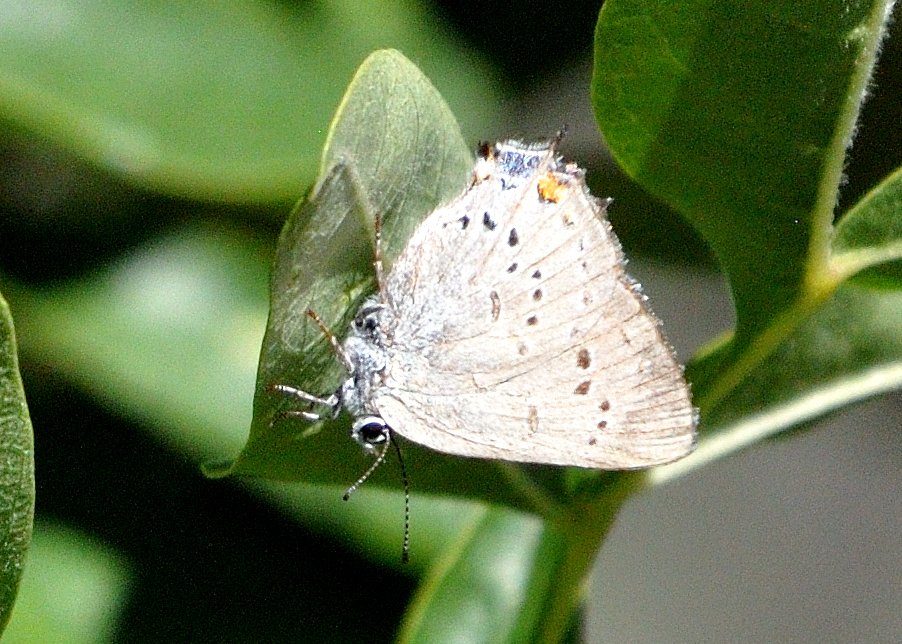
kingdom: Animalia
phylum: Arthropoda
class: Insecta
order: Lepidoptera
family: Lycaenidae
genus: Strymon
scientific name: Strymon acadica
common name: California Hairstreak
